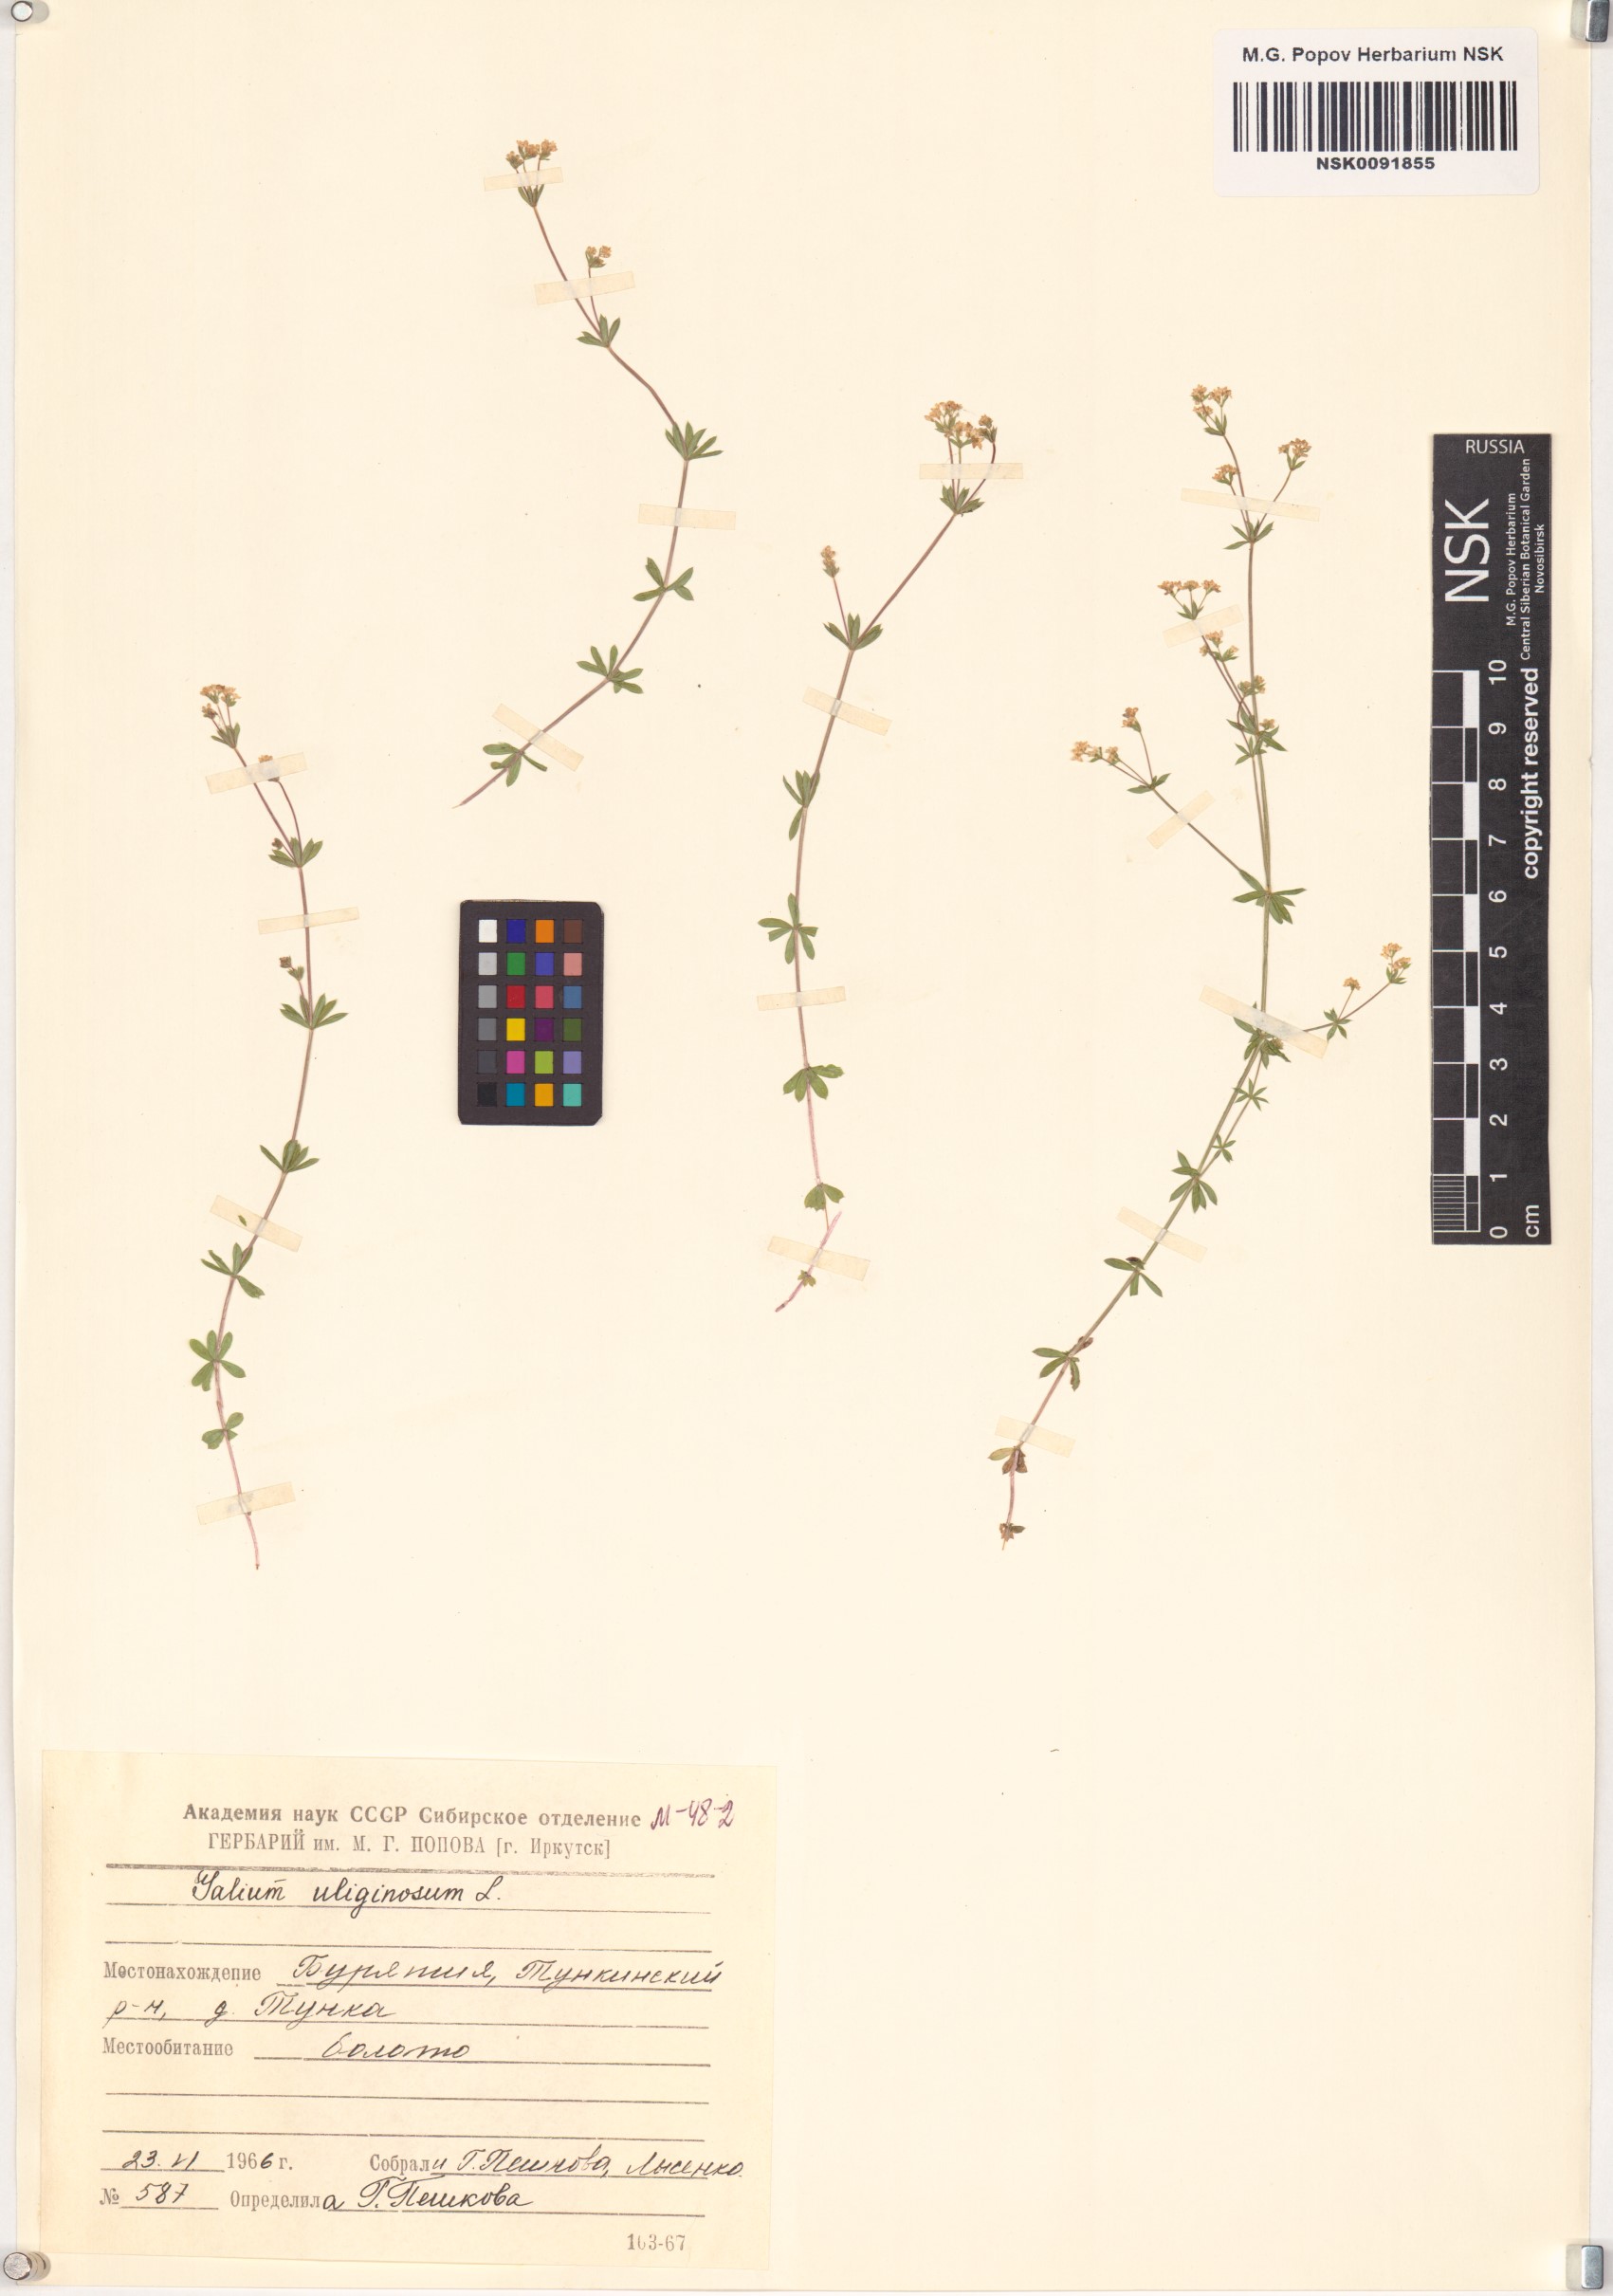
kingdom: Plantae
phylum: Tracheophyta
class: Magnoliopsida
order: Gentianales
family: Rubiaceae
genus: Galium
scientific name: Galium uliginosum
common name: Fen bedstraw
